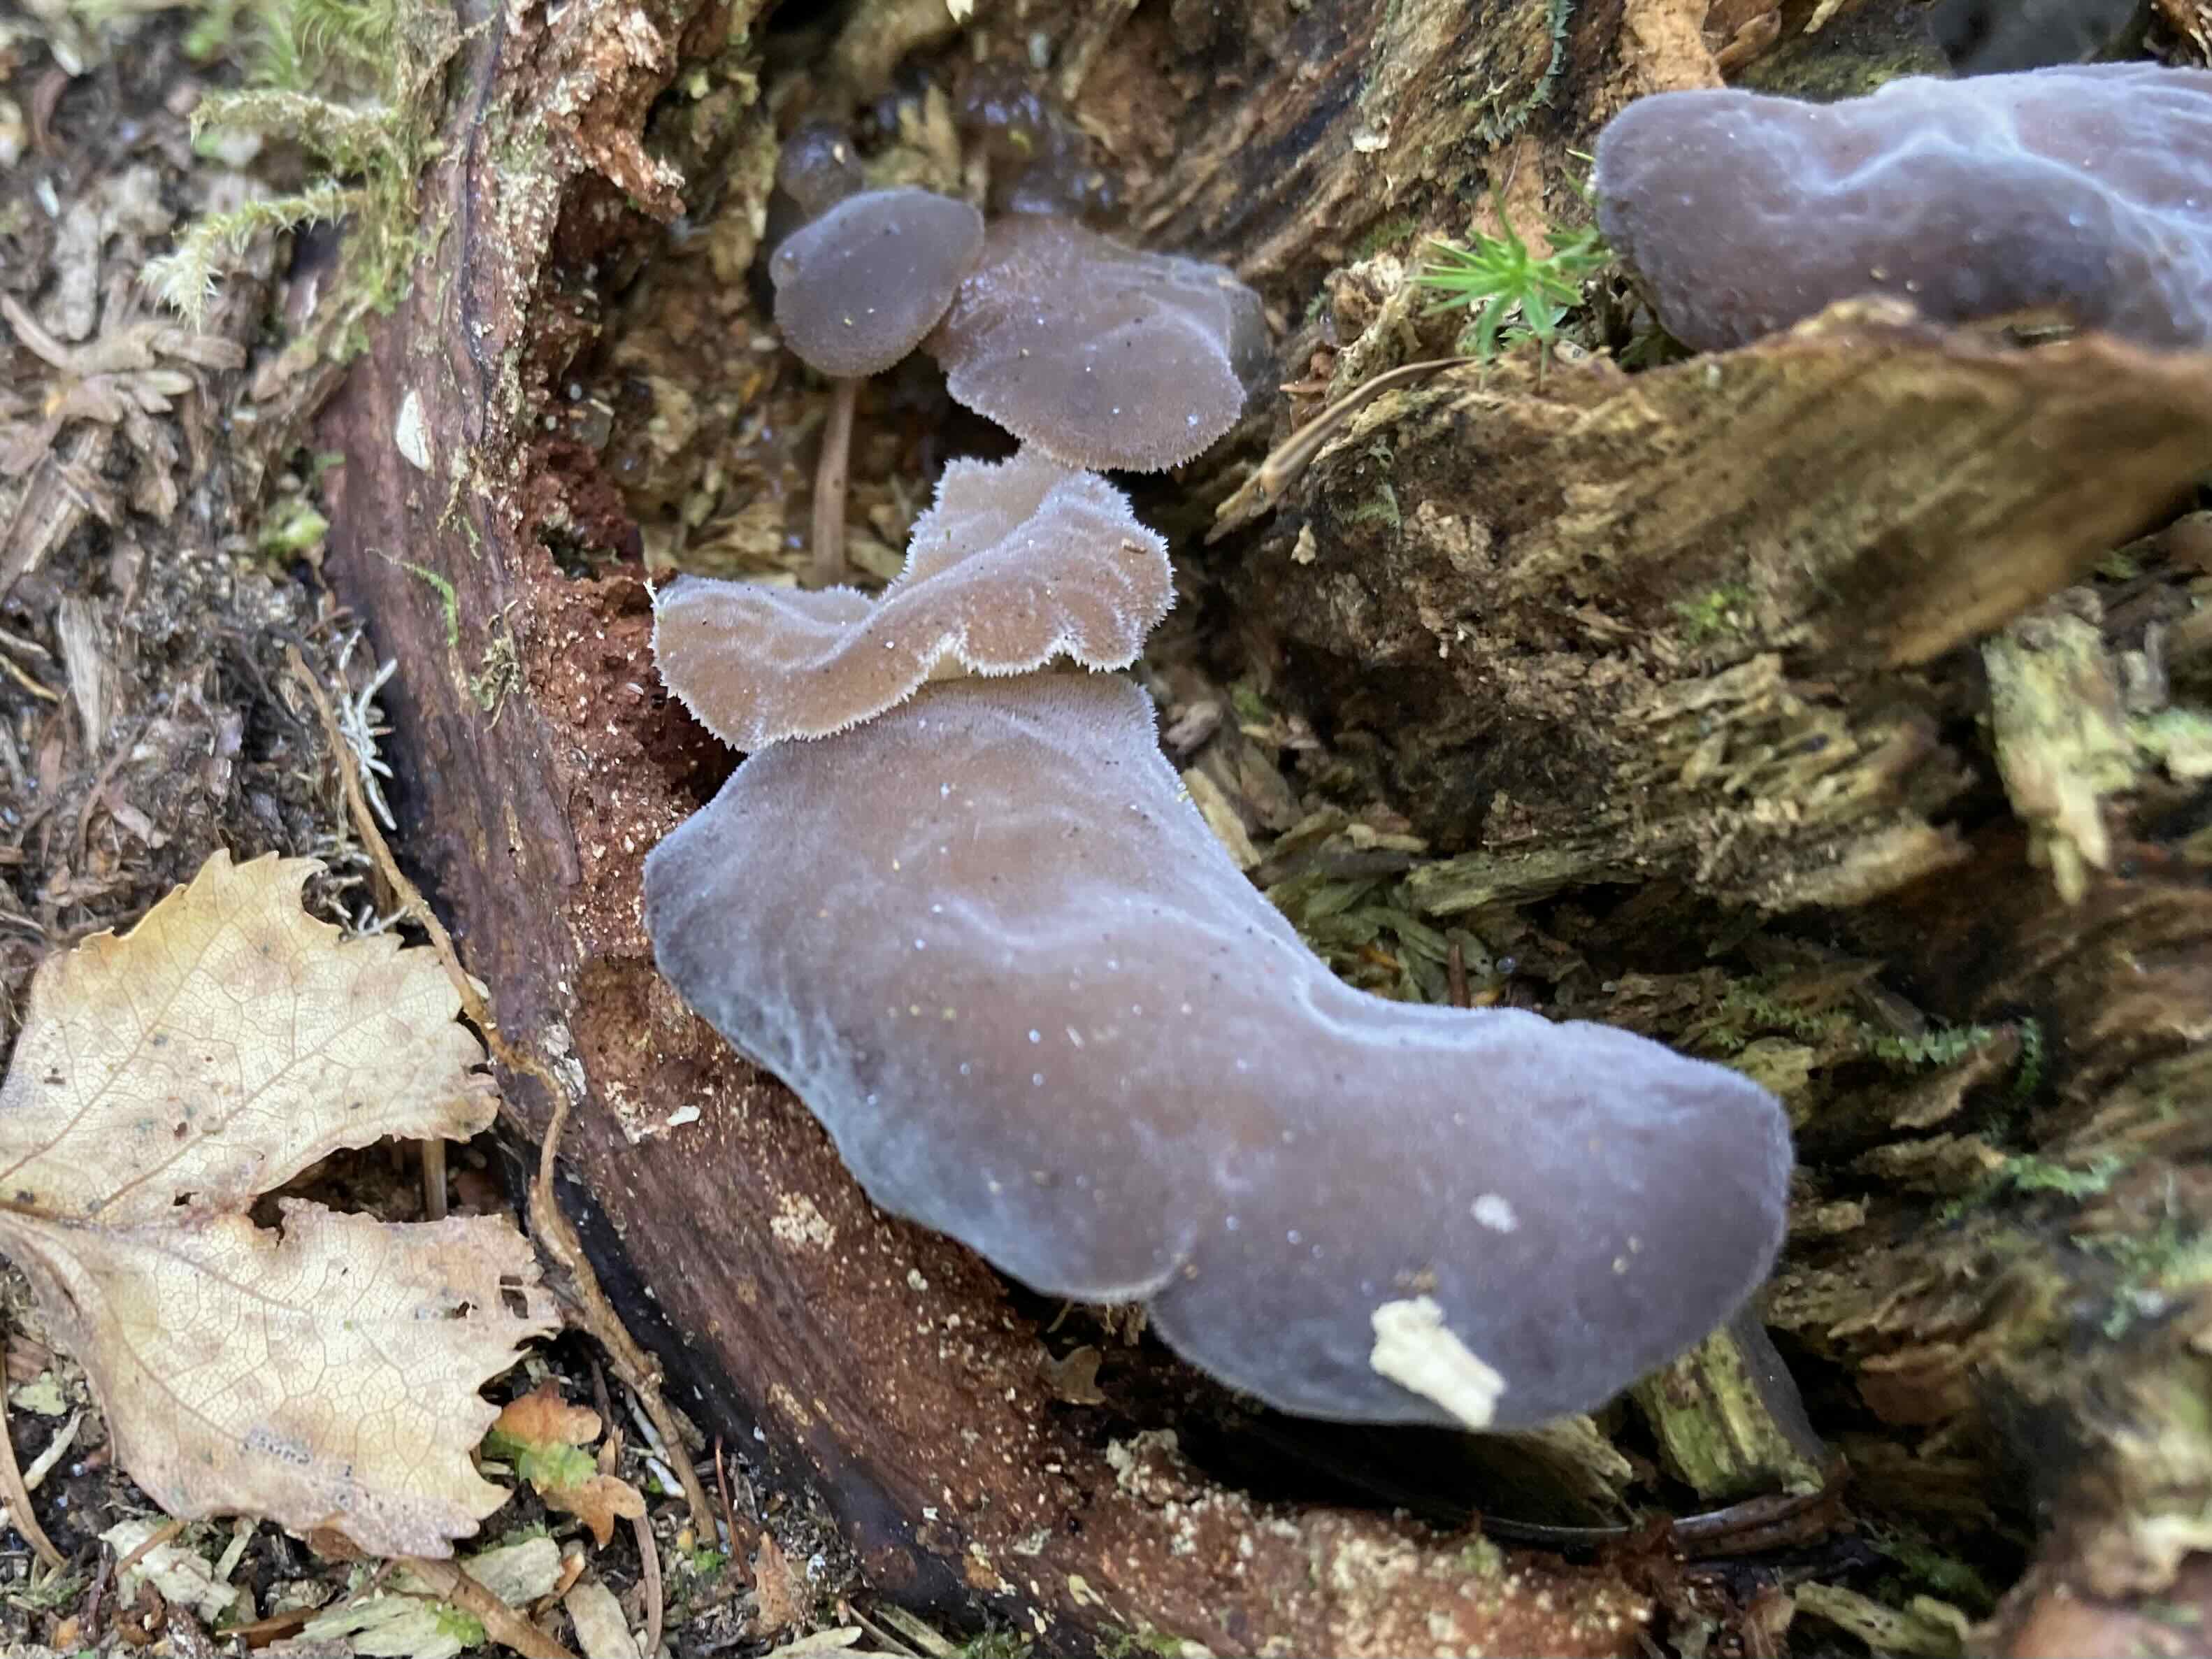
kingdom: Fungi
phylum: Basidiomycota
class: Agaricomycetes
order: Auriculariales
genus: Pseudohydnum
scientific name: Pseudohydnum gelatinosum
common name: bævretand
